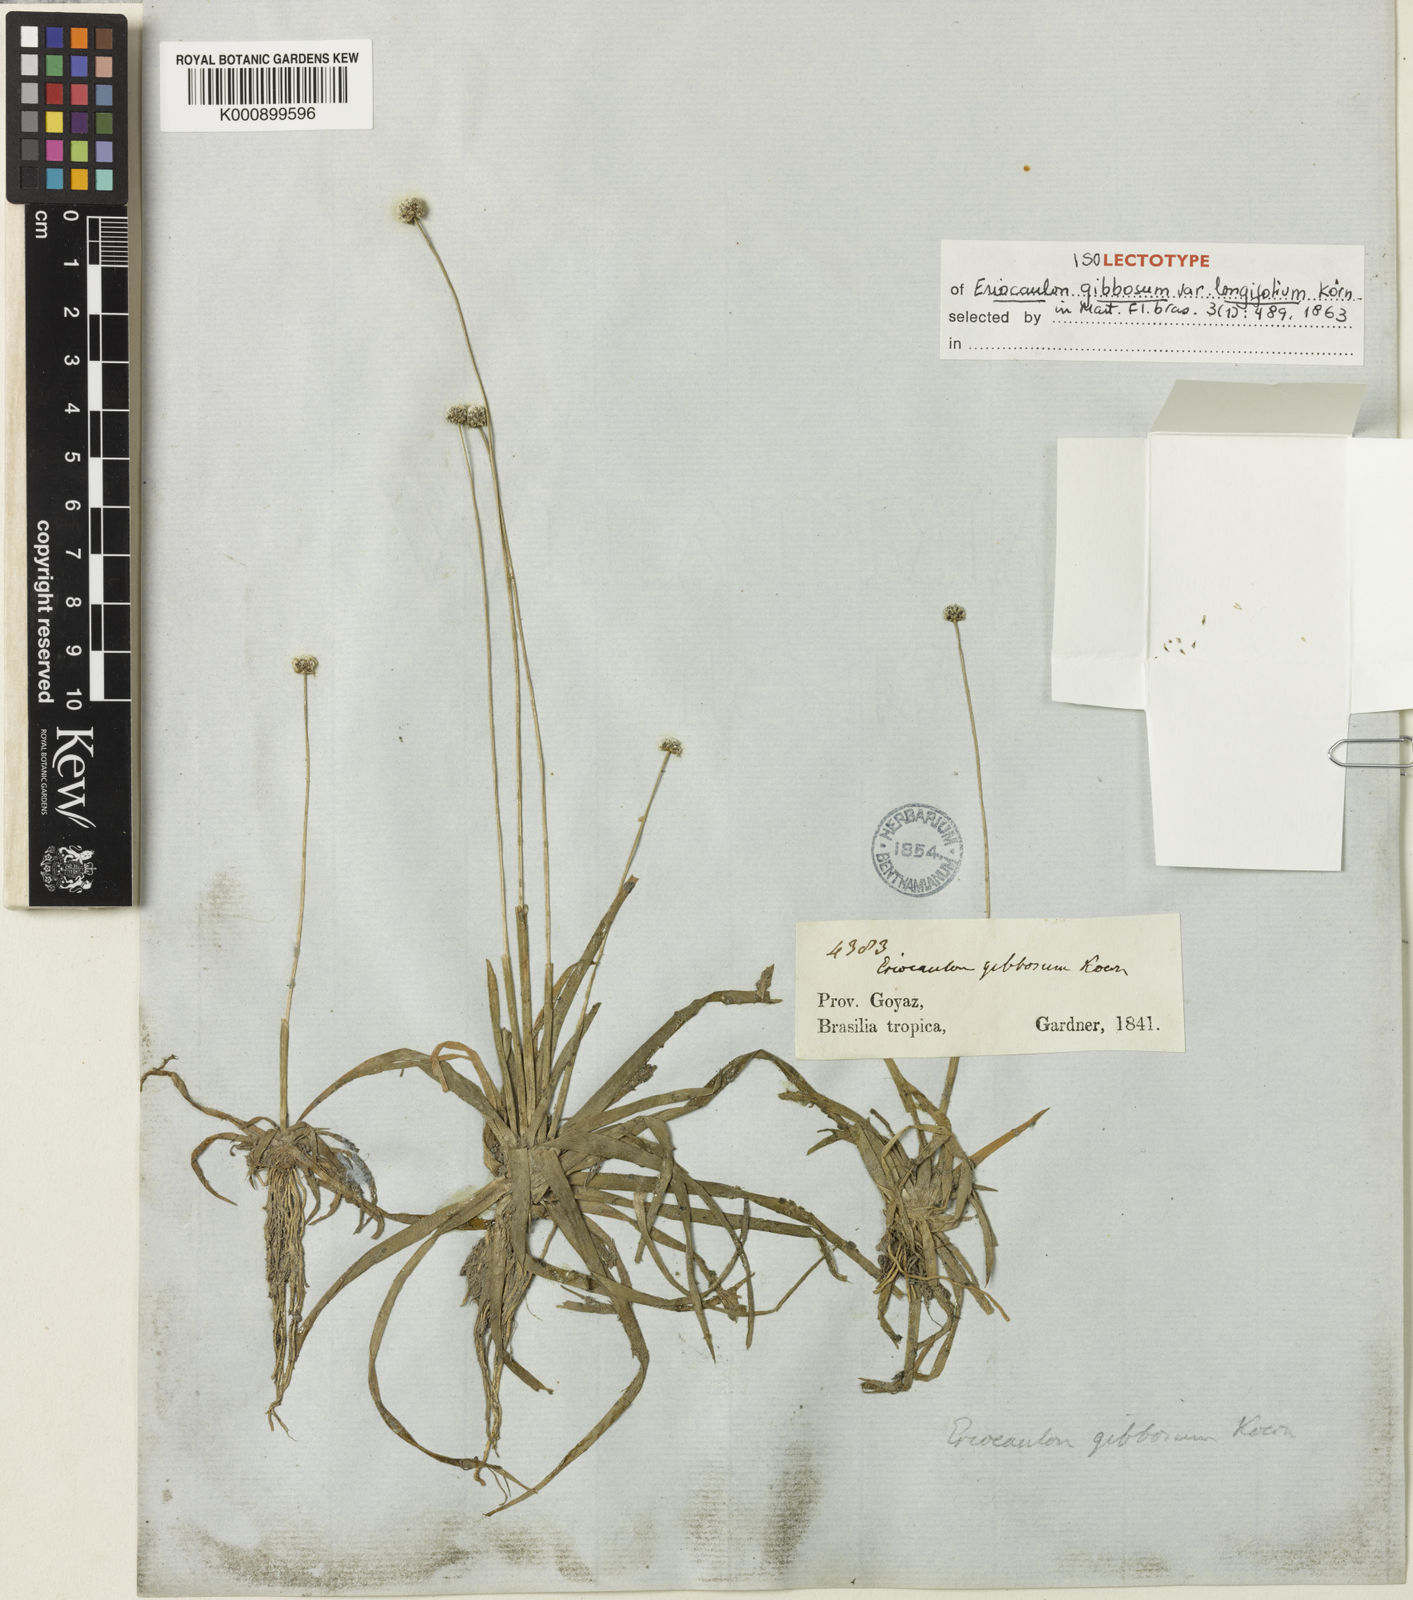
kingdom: Plantae
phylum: Tracheophyta
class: Liliopsida
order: Poales
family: Eriocaulaceae
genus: Eriocaulon
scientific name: Eriocaulon
